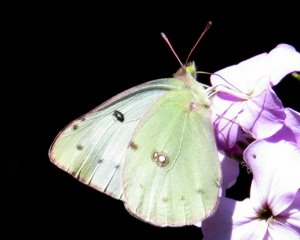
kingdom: Animalia
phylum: Arthropoda
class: Insecta
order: Lepidoptera
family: Pieridae
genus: Colias
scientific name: Colias philodice
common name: Clouded Sulphur
